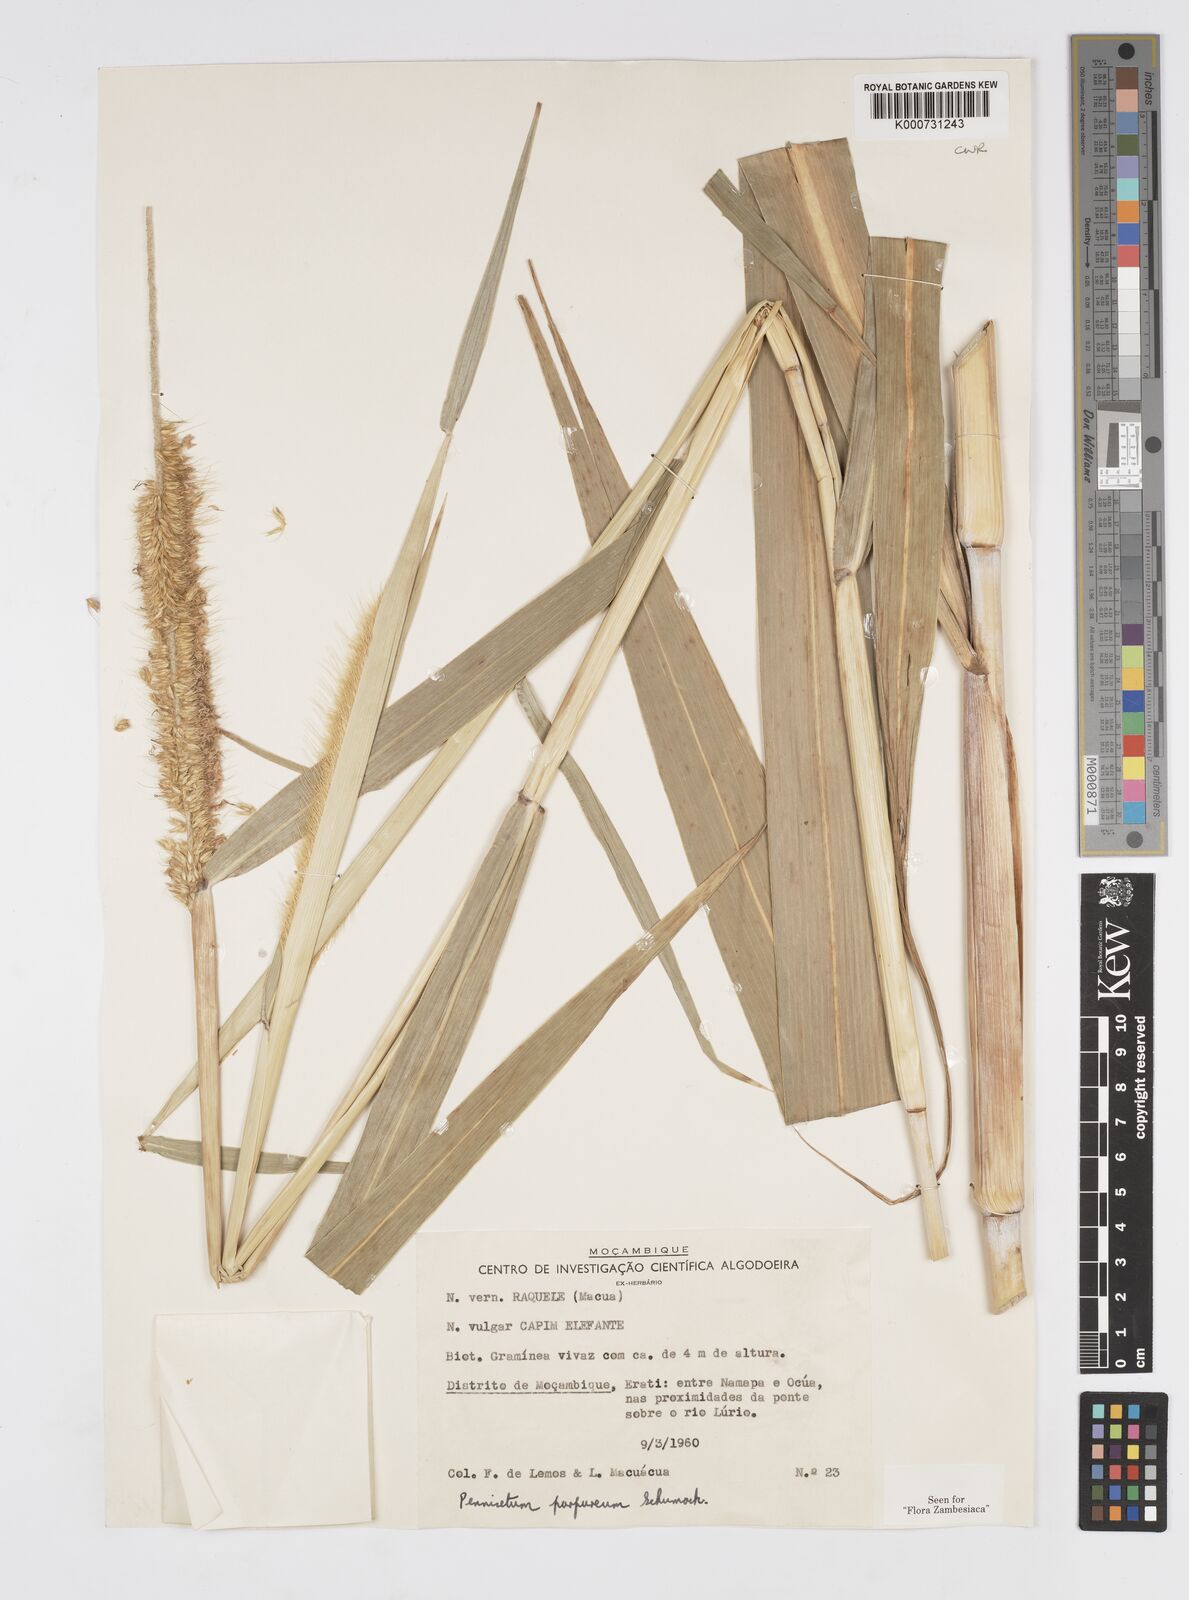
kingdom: Plantae
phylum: Tracheophyta
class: Liliopsida
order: Poales
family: Poaceae
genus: Cenchrus
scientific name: Cenchrus purpureus
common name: Elephant grass
